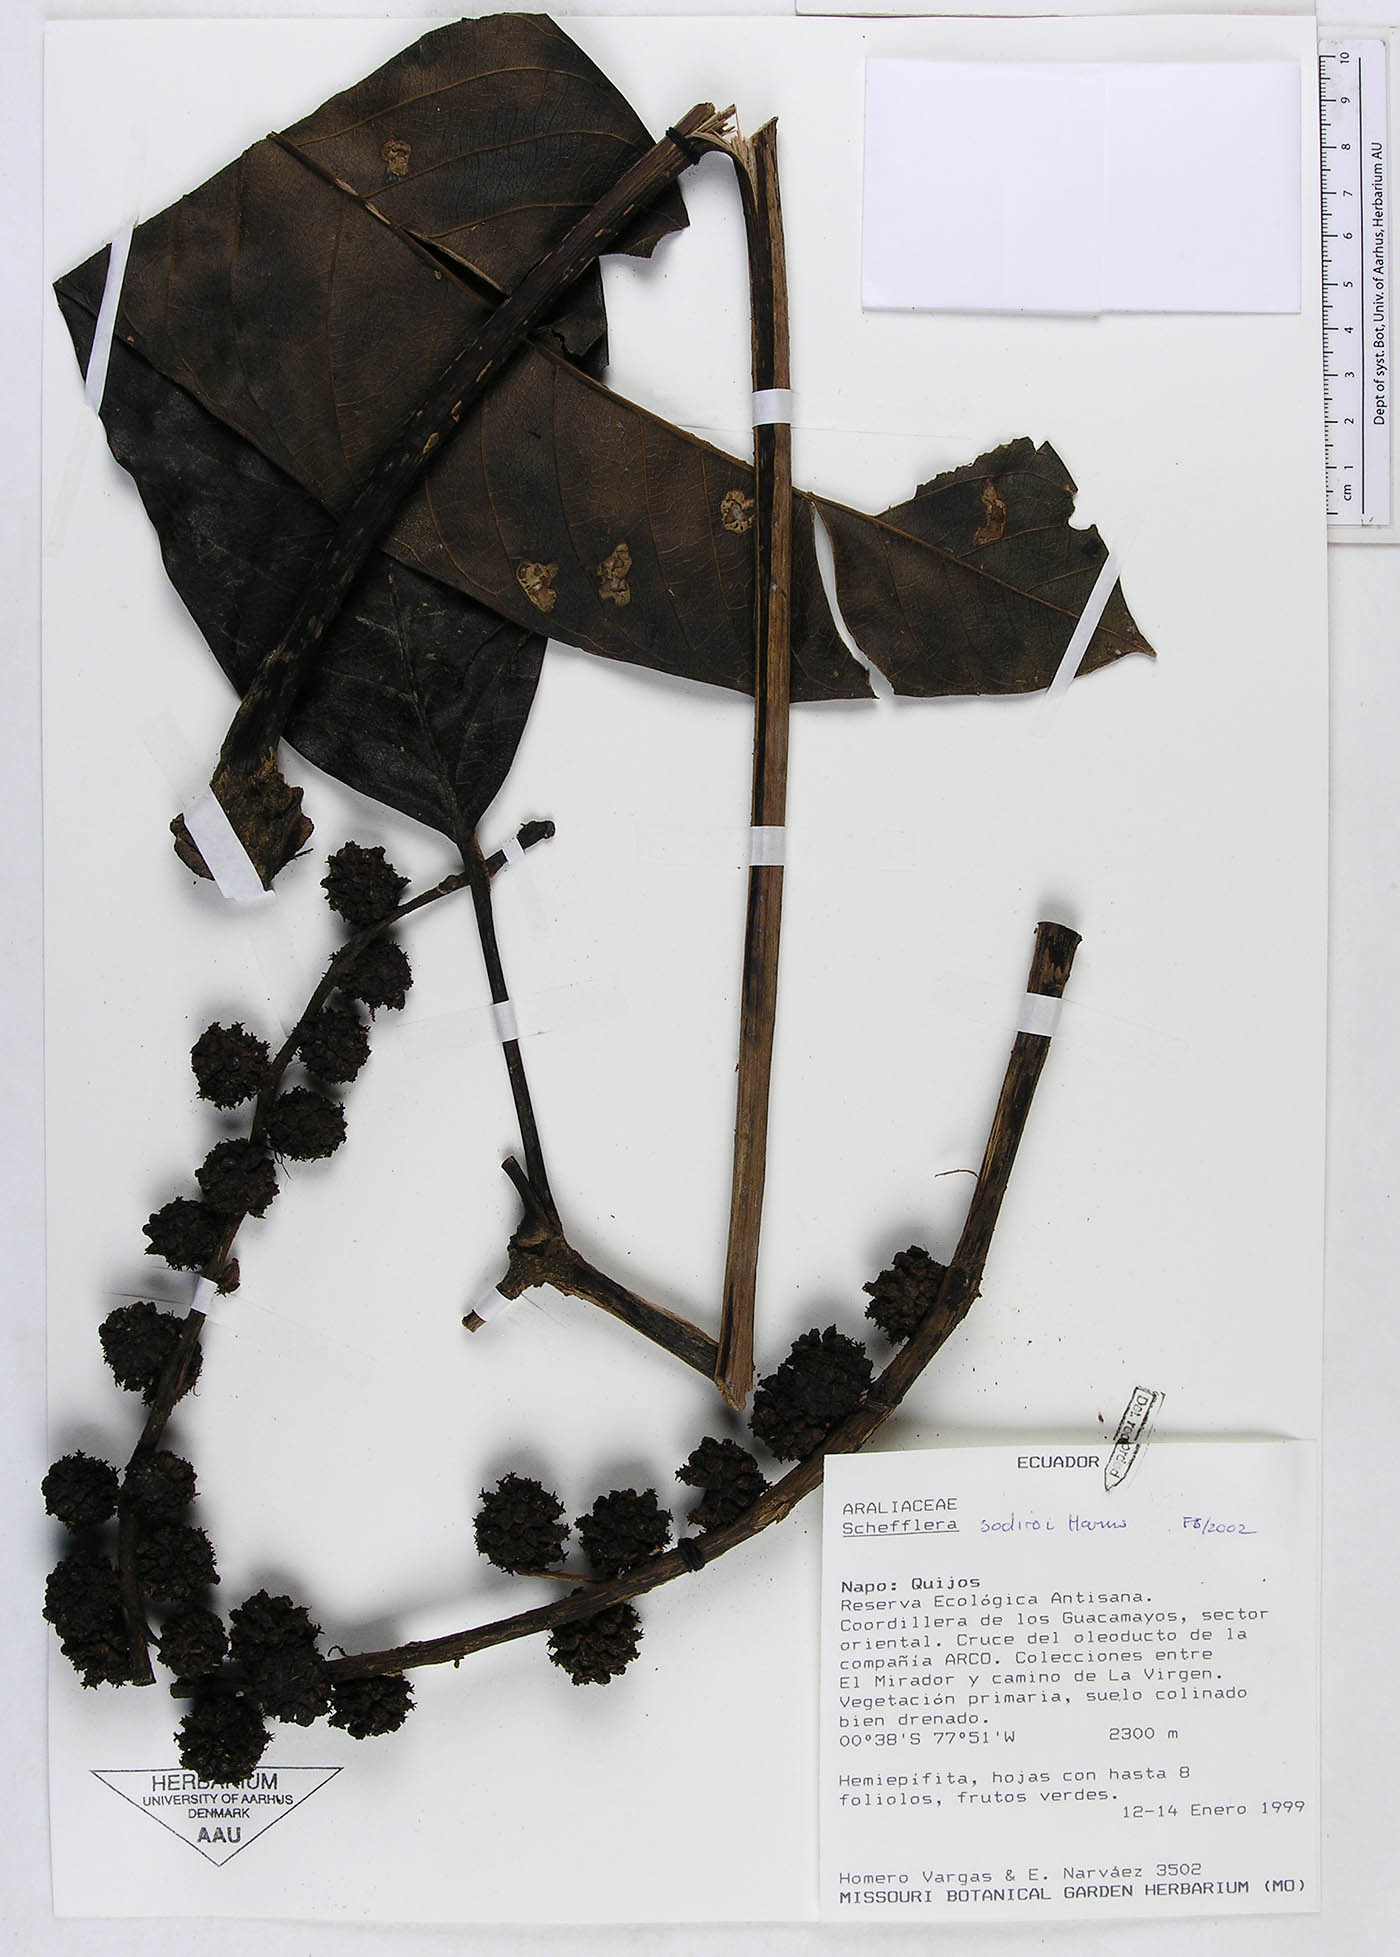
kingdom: Plantae
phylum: Tracheophyta
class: Magnoliopsida
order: Apiales
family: Araliaceae
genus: Sciodaphyllum
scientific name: Sciodaphyllum
